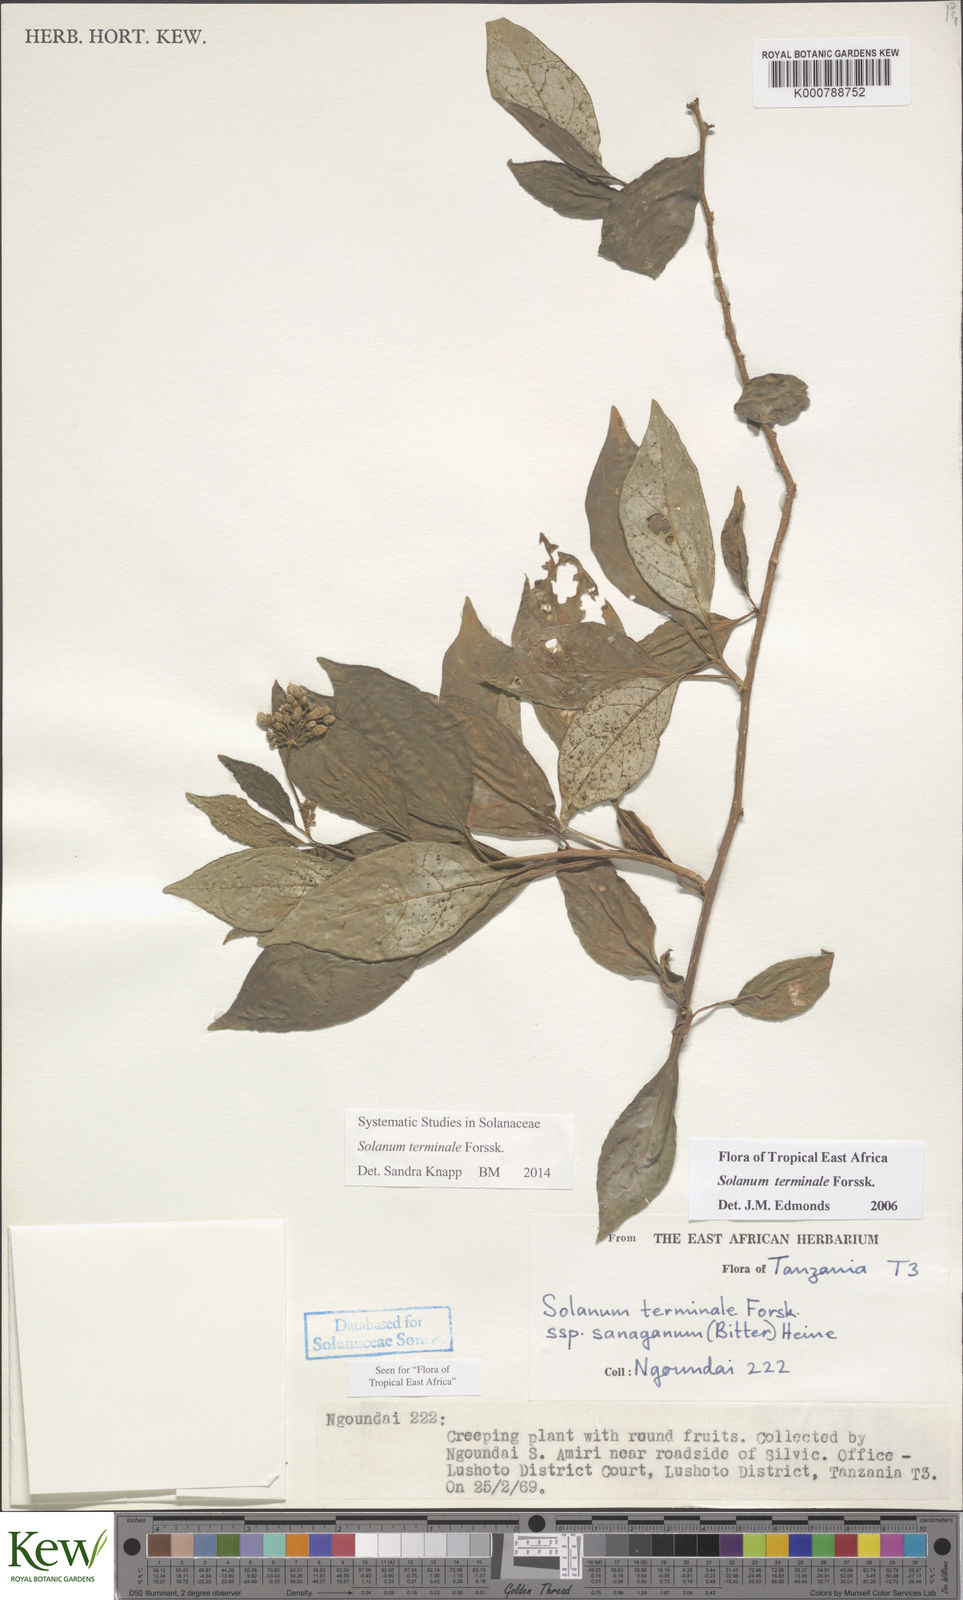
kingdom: Plantae
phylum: Tracheophyta
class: Magnoliopsida
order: Solanales
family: Solanaceae
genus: Solanum
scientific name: Solanum terminale
